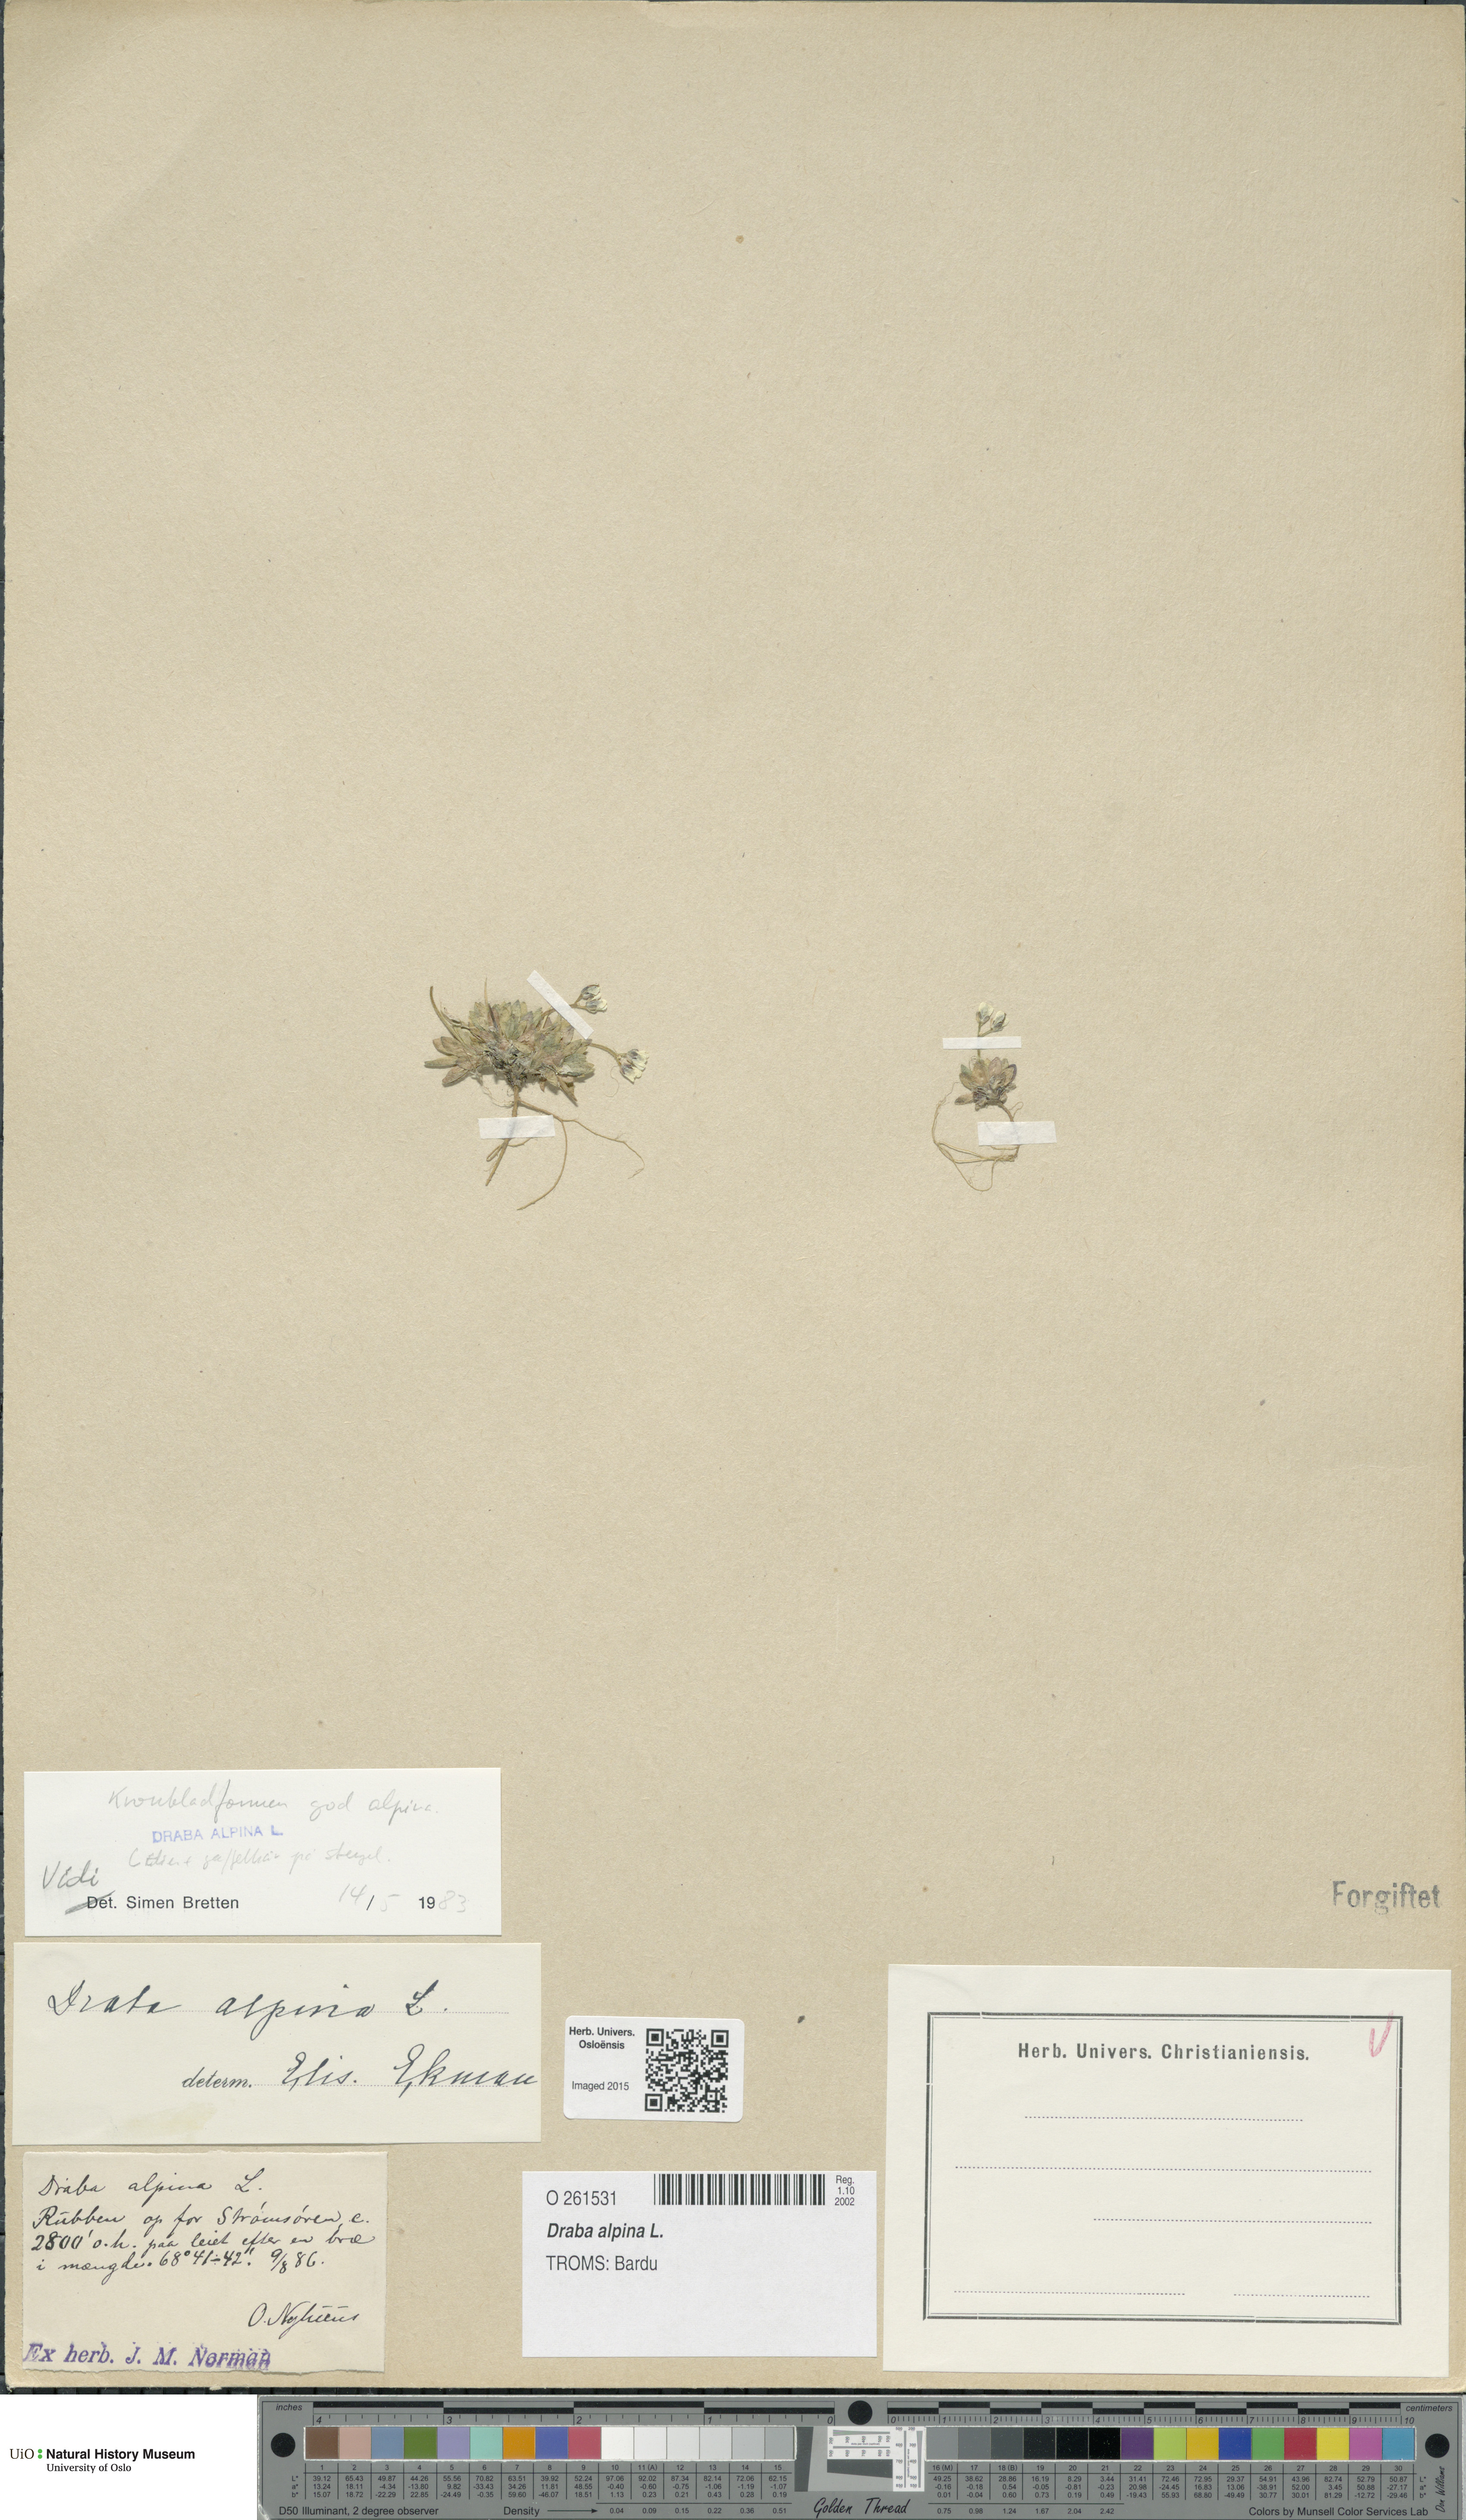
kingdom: Plantae
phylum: Tracheophyta
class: Magnoliopsida
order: Brassicales
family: Brassicaceae
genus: Draba
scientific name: Draba alpina
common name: Alpine draba
